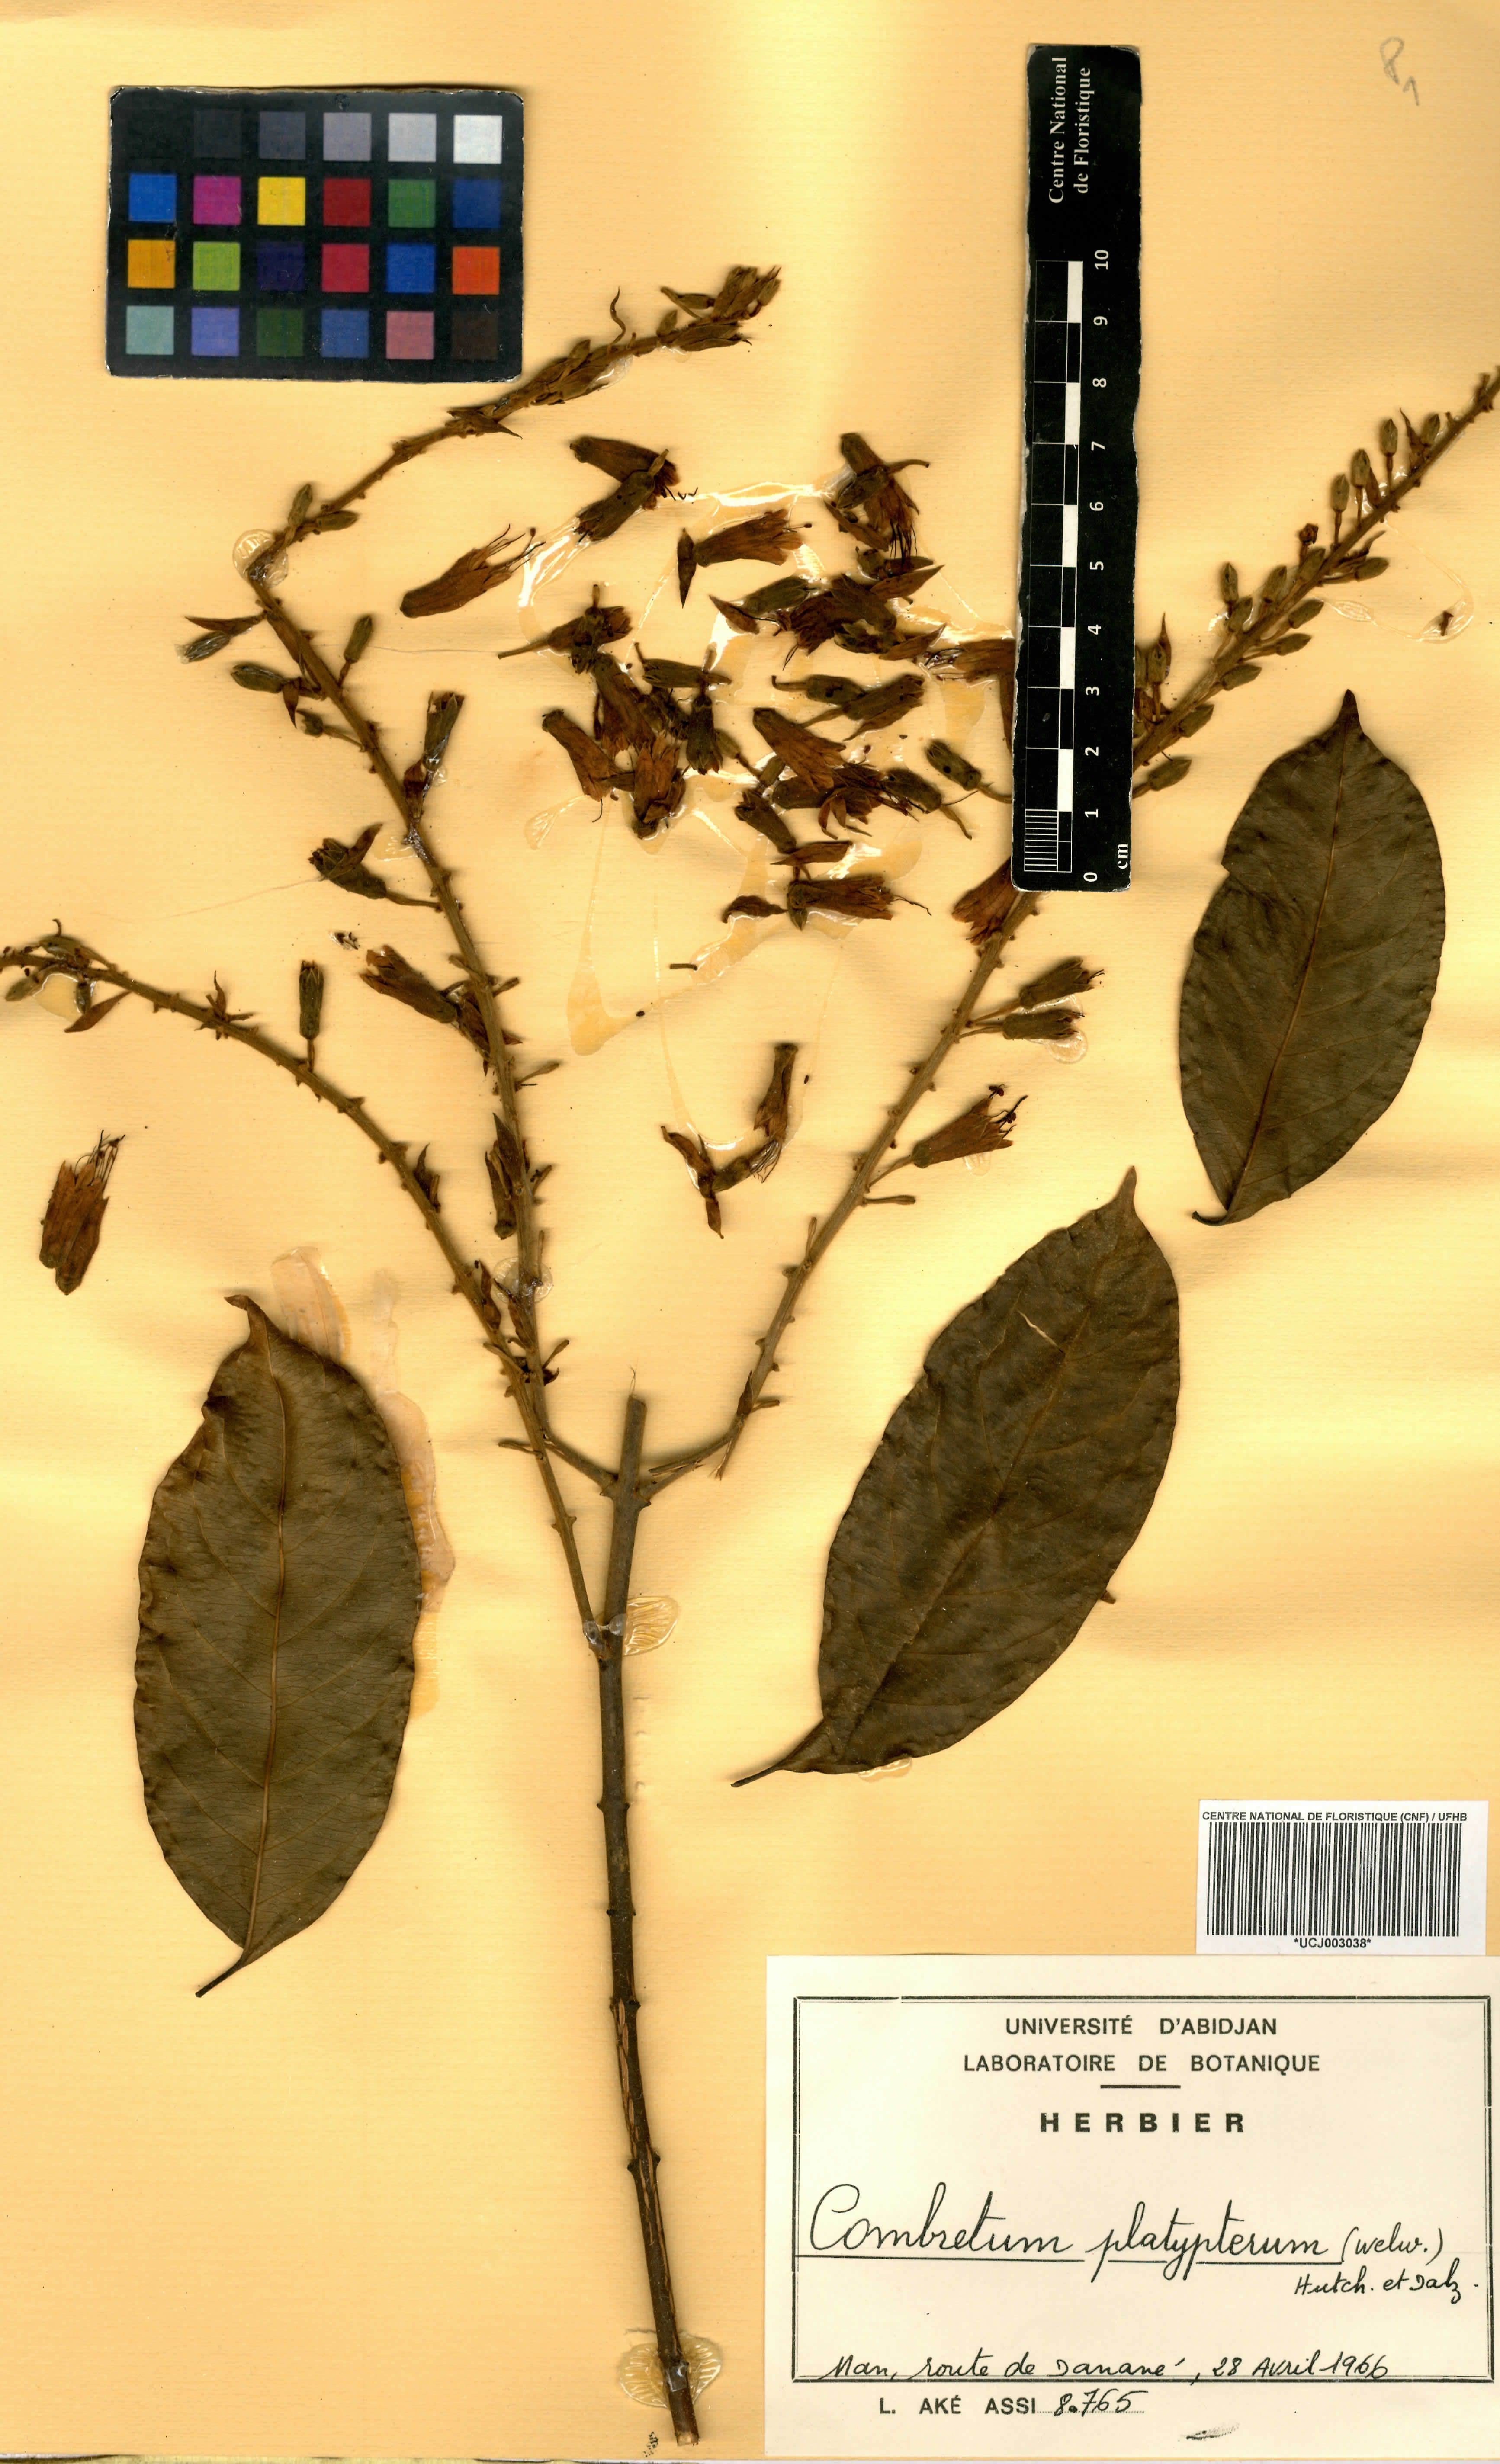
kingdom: Plantae
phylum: Tracheophyta
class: Magnoliopsida
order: Myrtales
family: Combretaceae
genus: Combretum
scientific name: Combretum platypterum
